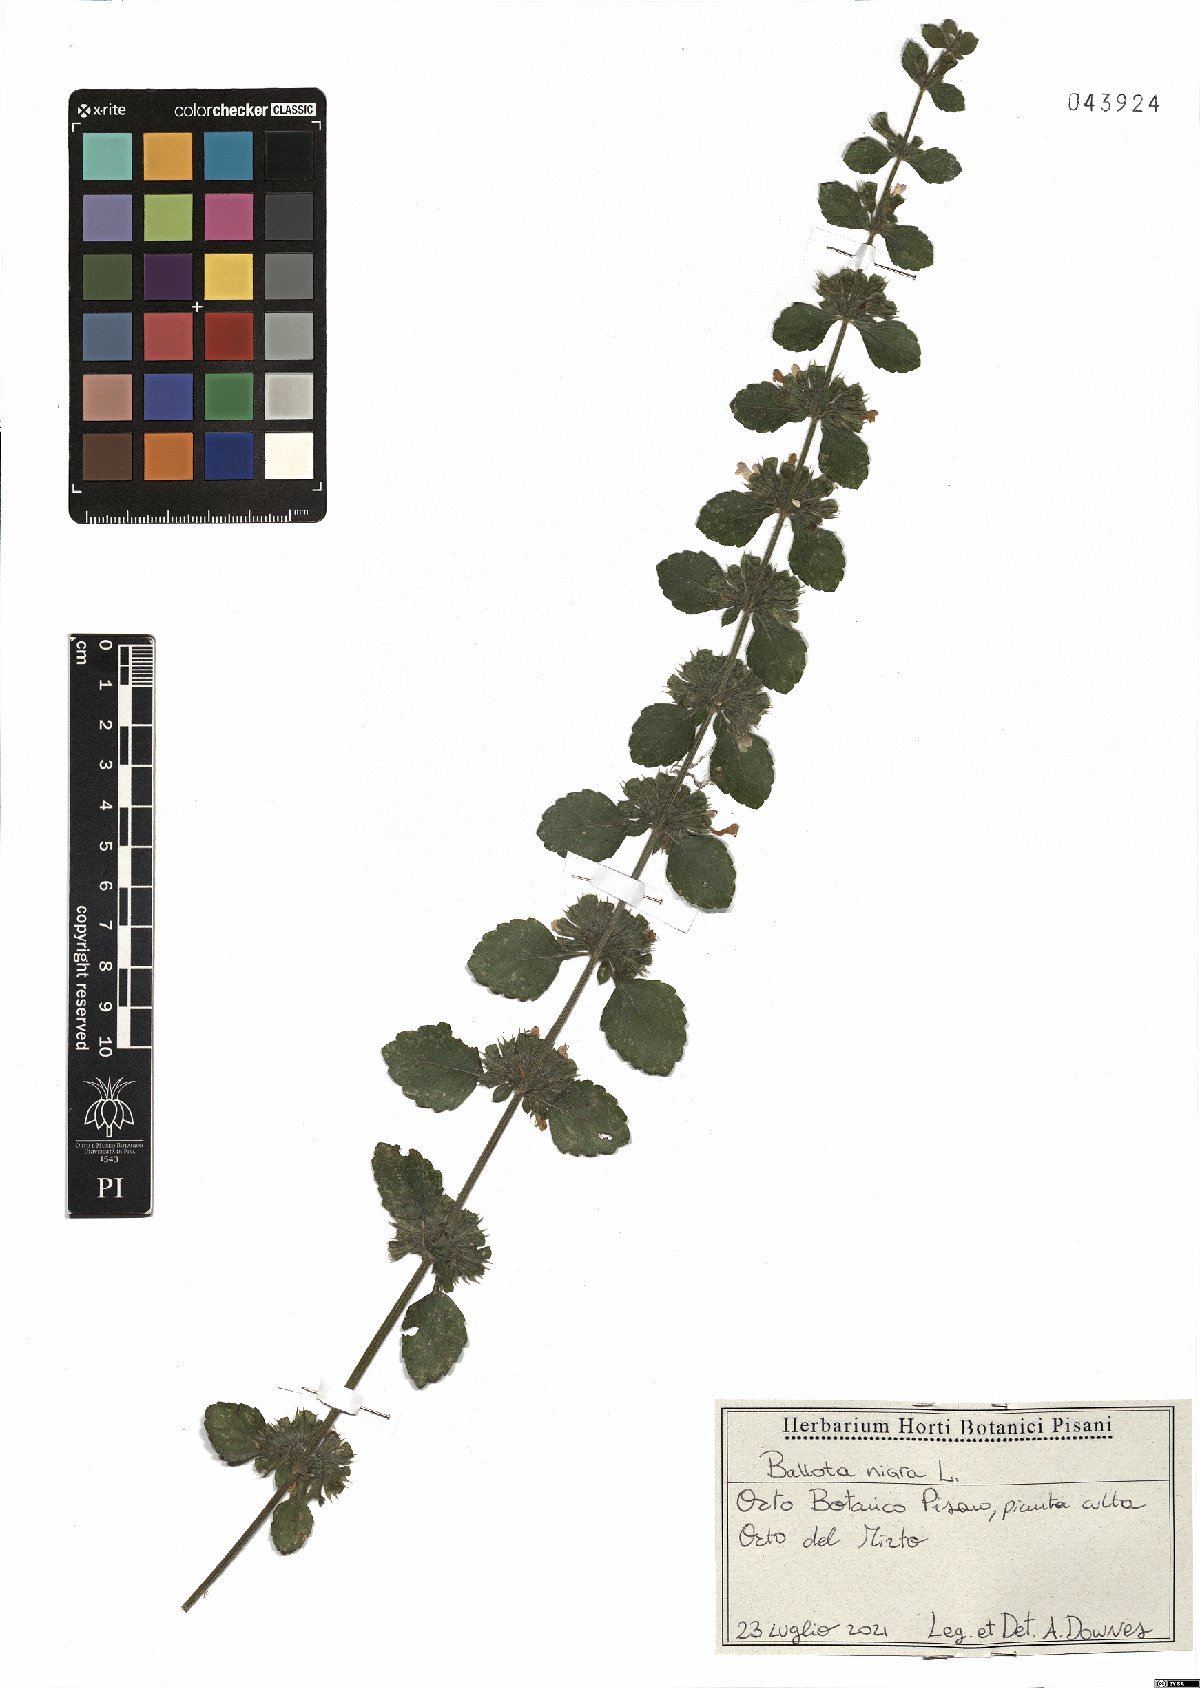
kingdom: Plantae
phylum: Tracheophyta
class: Magnoliopsida
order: Lamiales
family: Lamiaceae
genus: Ballota
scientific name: Ballota nigra
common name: Black horehound
